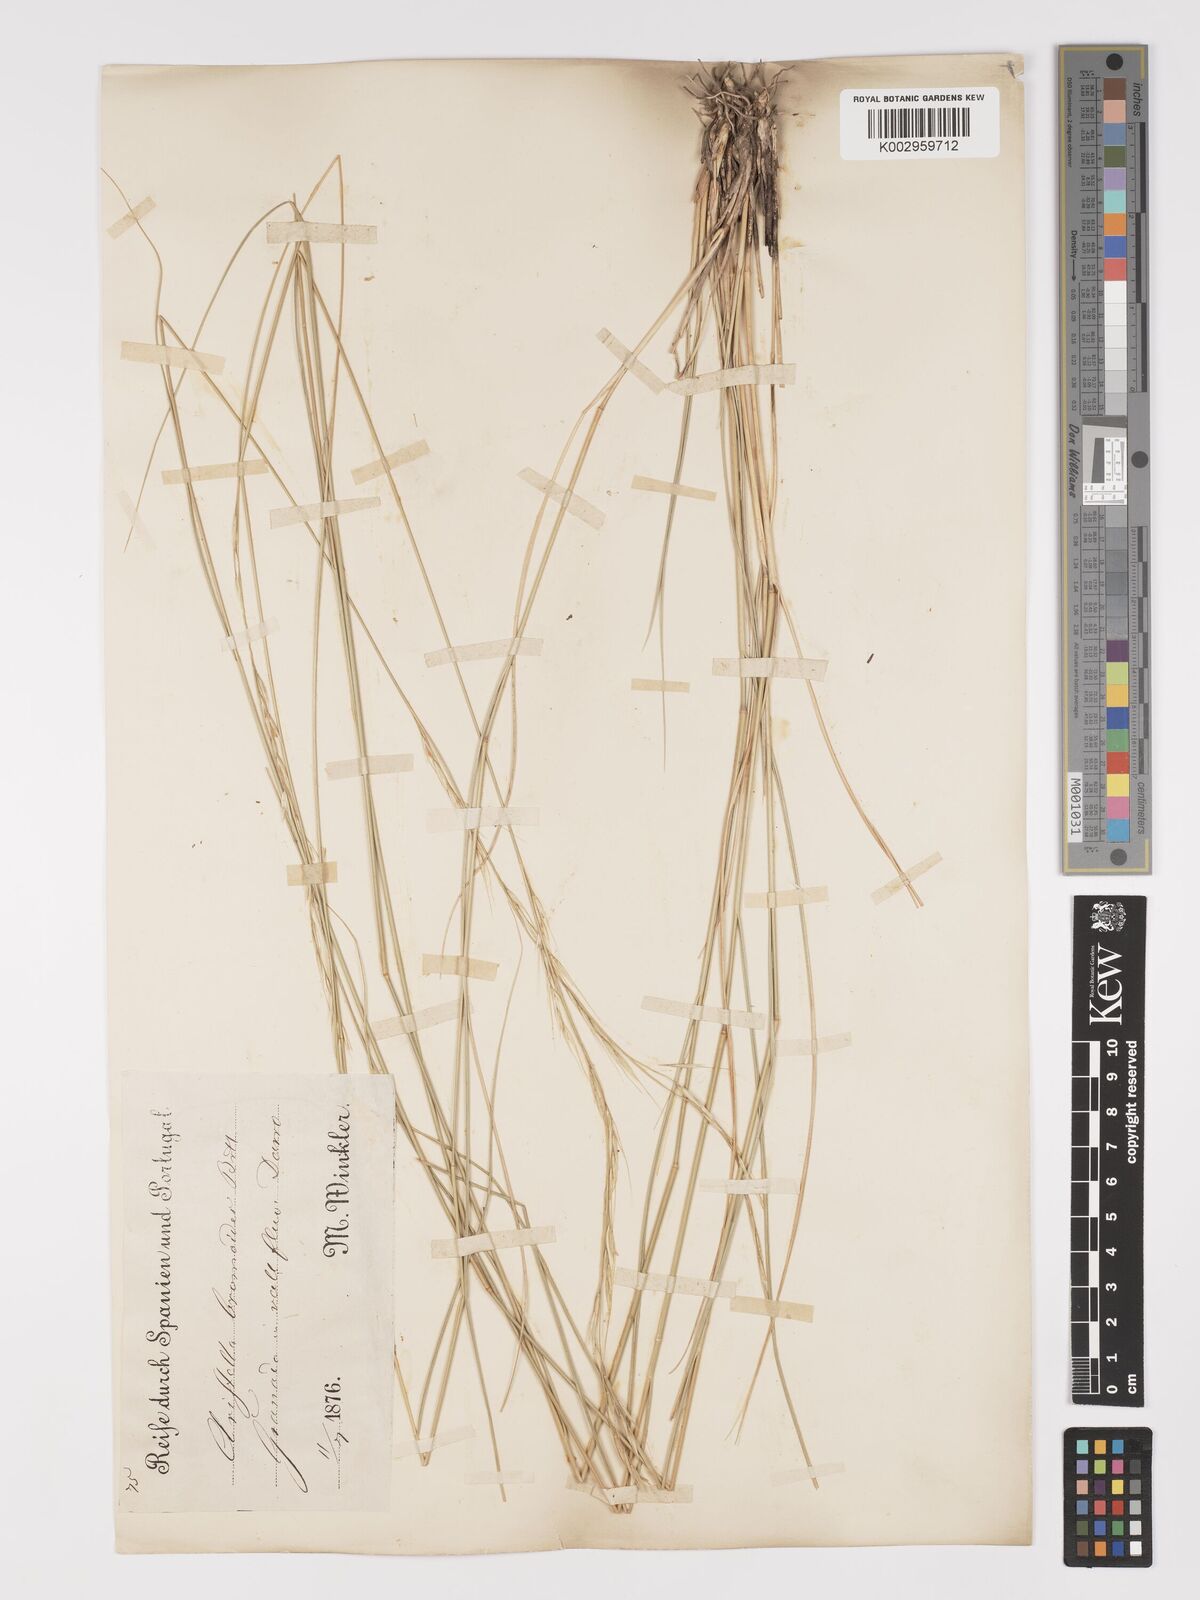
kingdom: Plantae
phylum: Tracheophyta
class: Liliopsida
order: Poales
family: Poaceae
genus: Achnatherum
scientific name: Achnatherum bromoides
